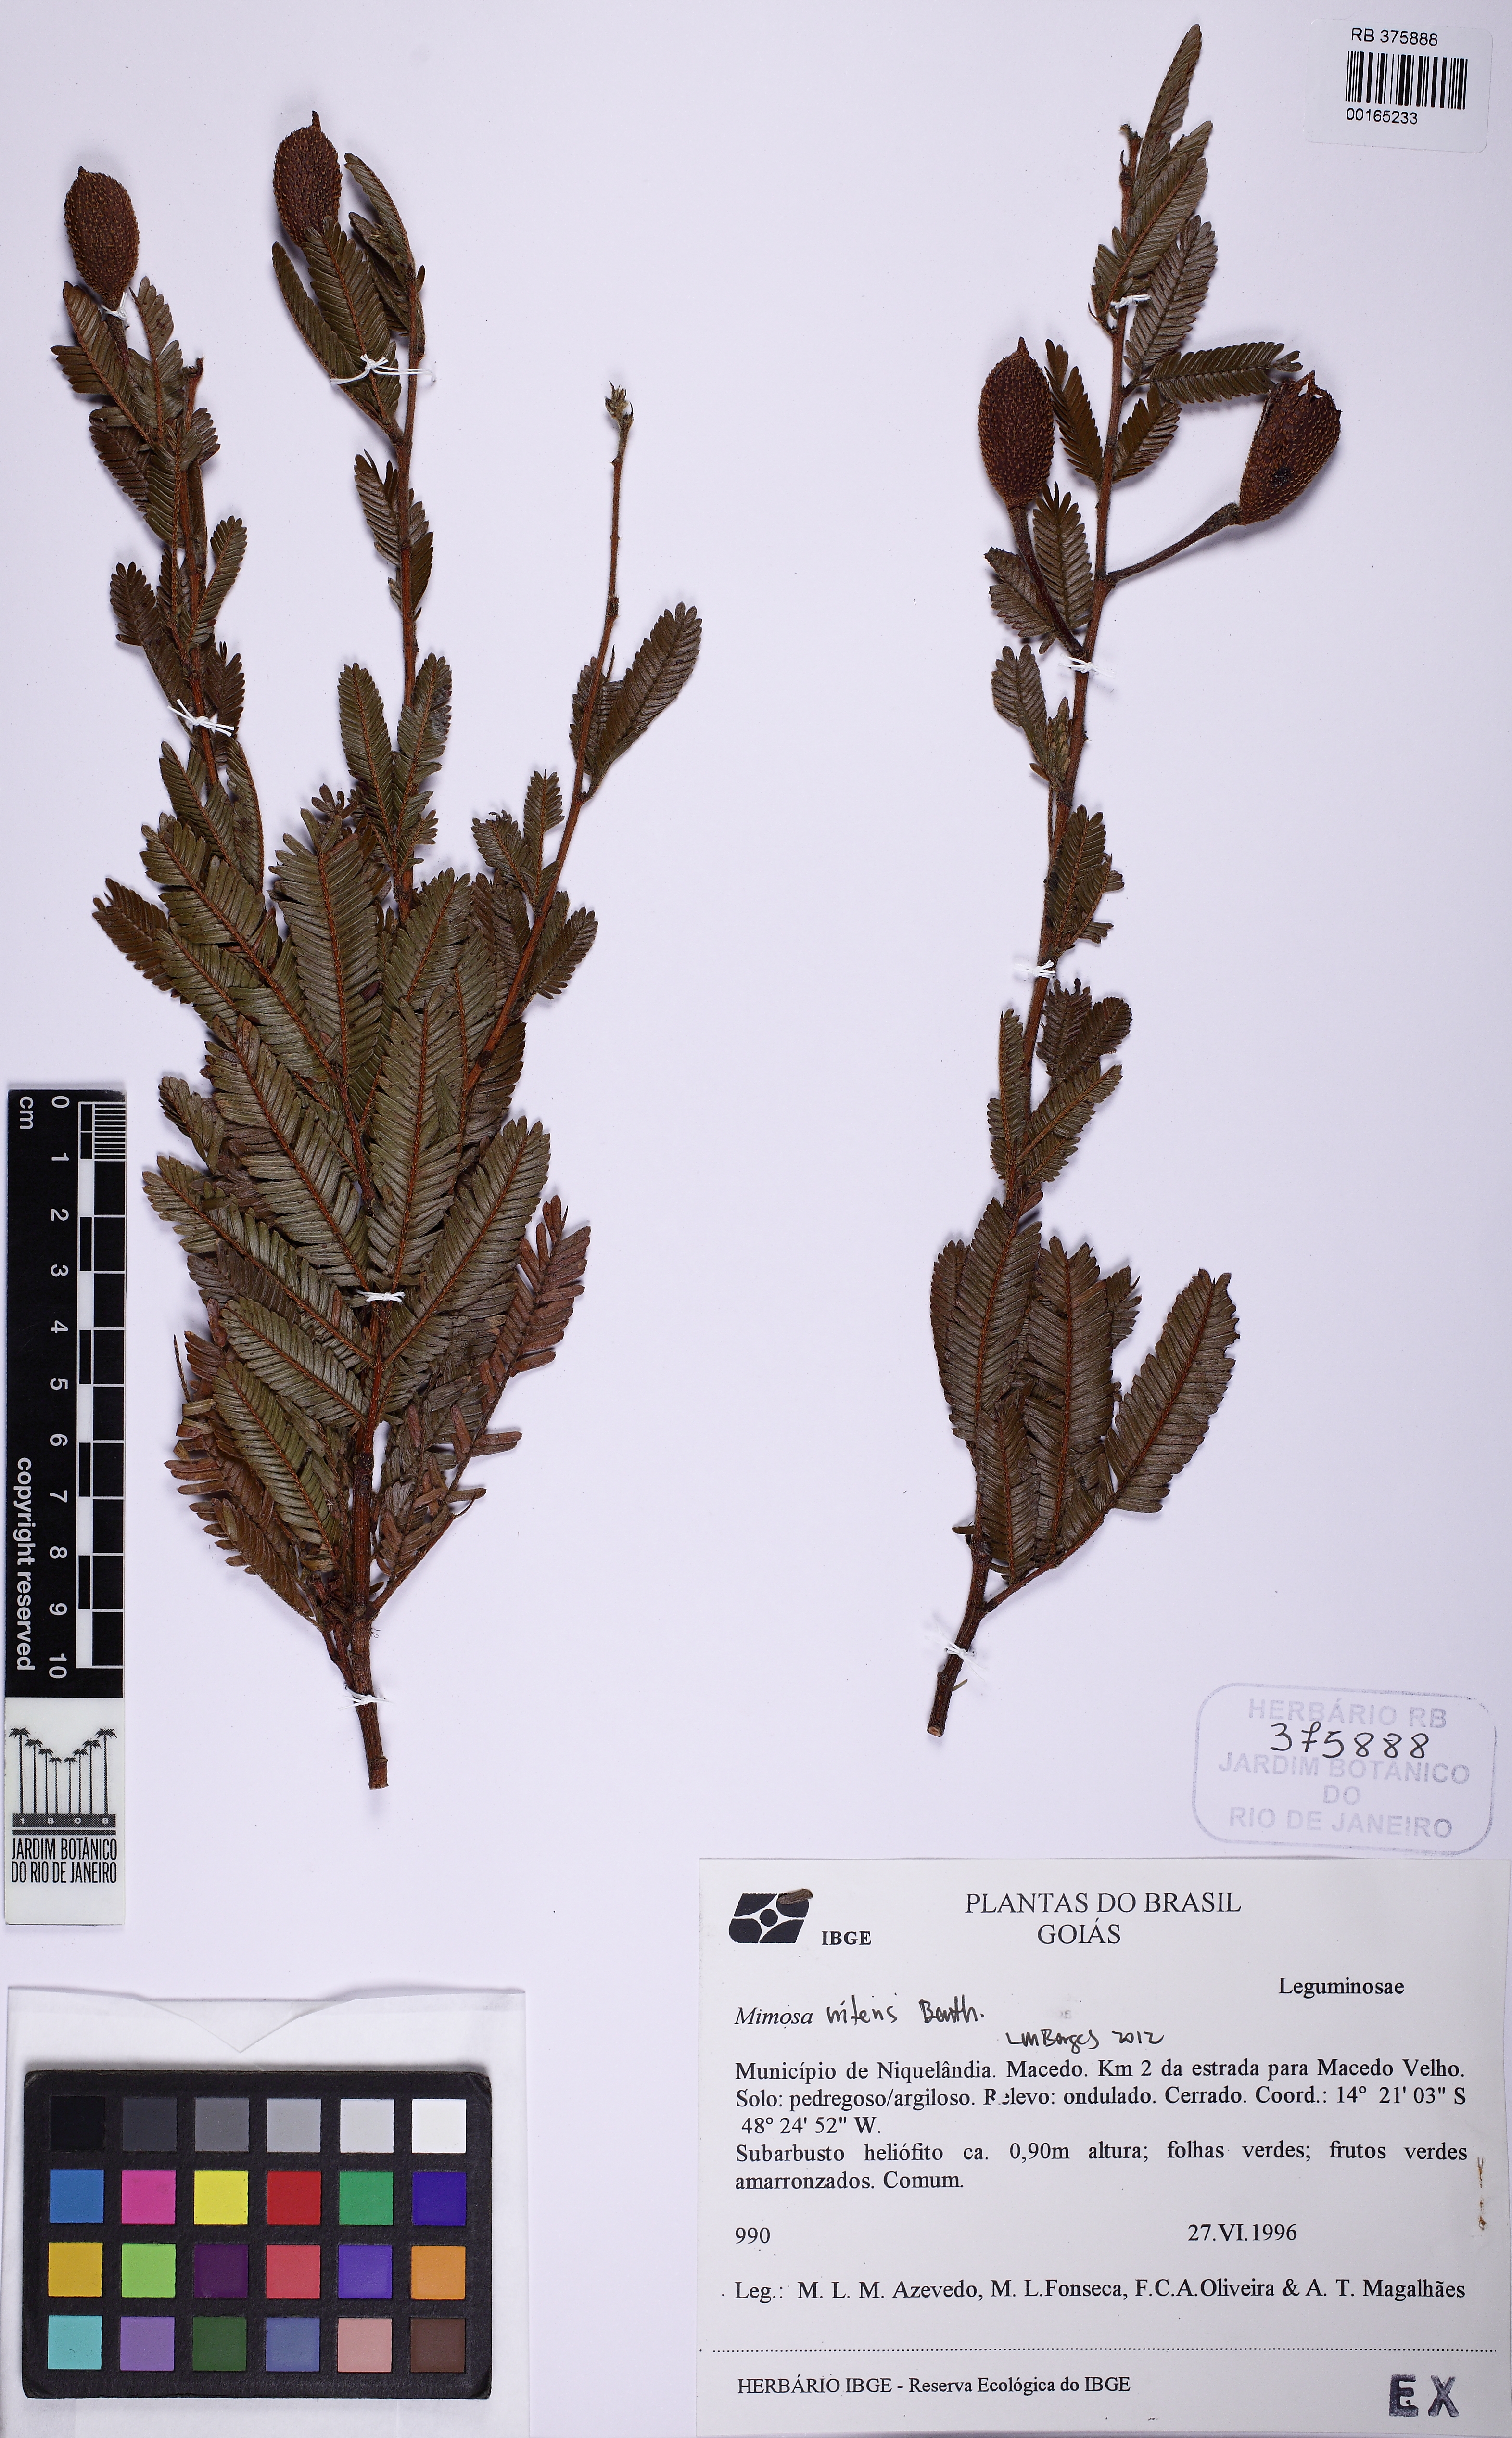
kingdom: Plantae
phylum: Tracheophyta
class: Magnoliopsida
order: Fabales
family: Fabaceae
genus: Mimosa
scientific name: Mimosa nitens
